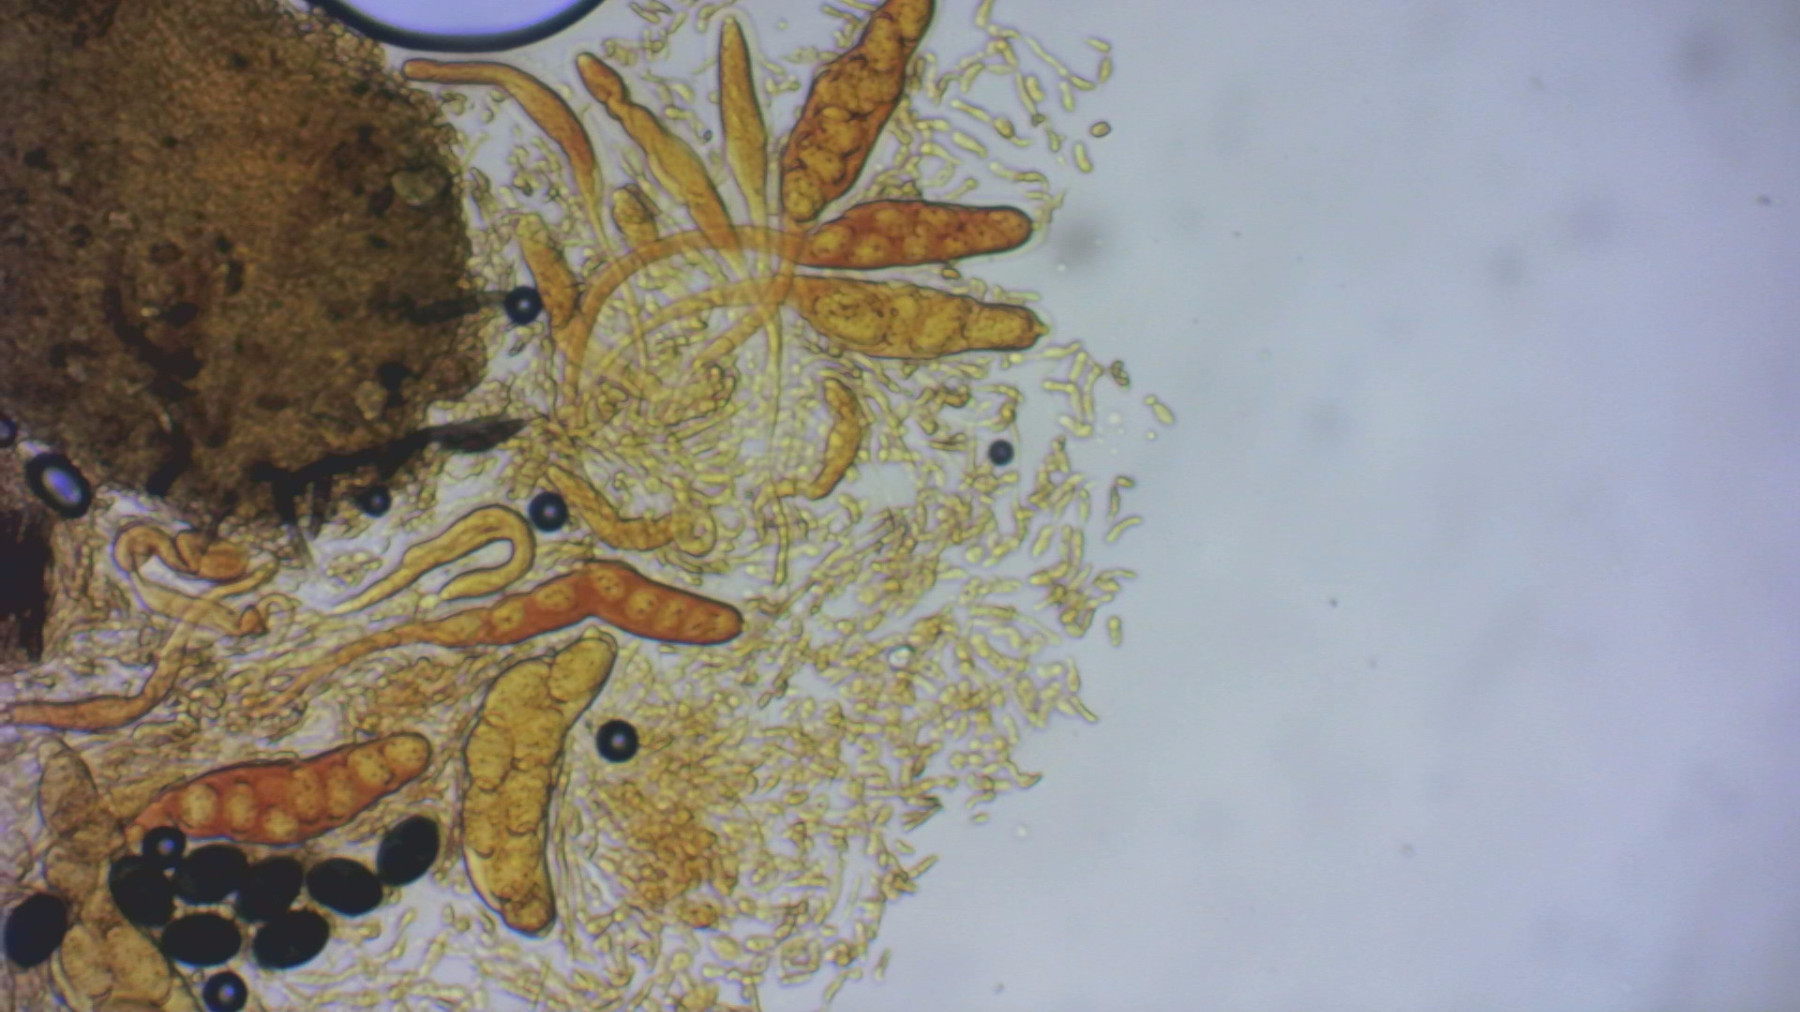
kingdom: Fungi
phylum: Ascomycota
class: Sordariomycetes
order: Sordariales
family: Lasiosphaeriaceae
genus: Arnium
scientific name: Arnium apiculatum
